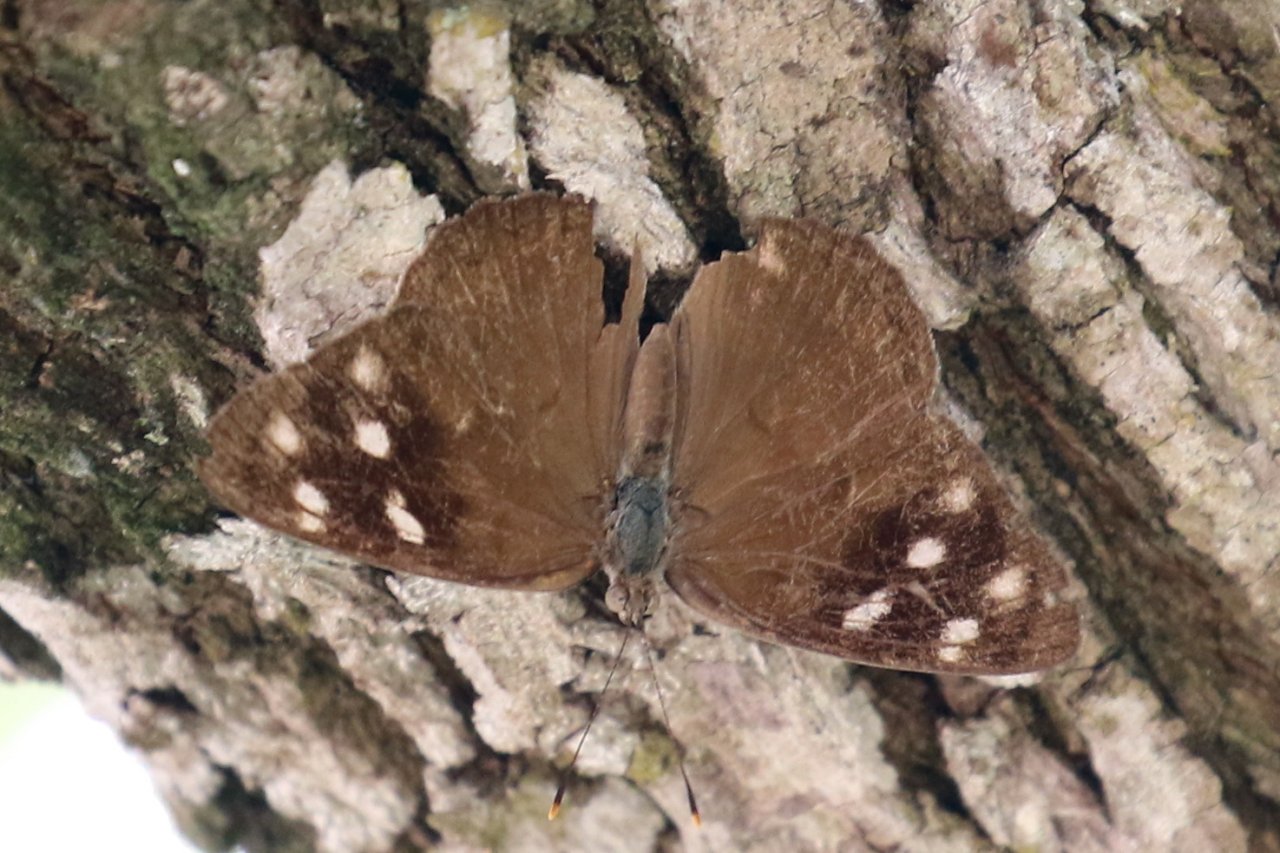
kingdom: Animalia
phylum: Arthropoda
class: Insecta
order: Lepidoptera
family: Nymphalidae
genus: Eunica
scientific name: Eunica monima
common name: Dingy Purplewing
